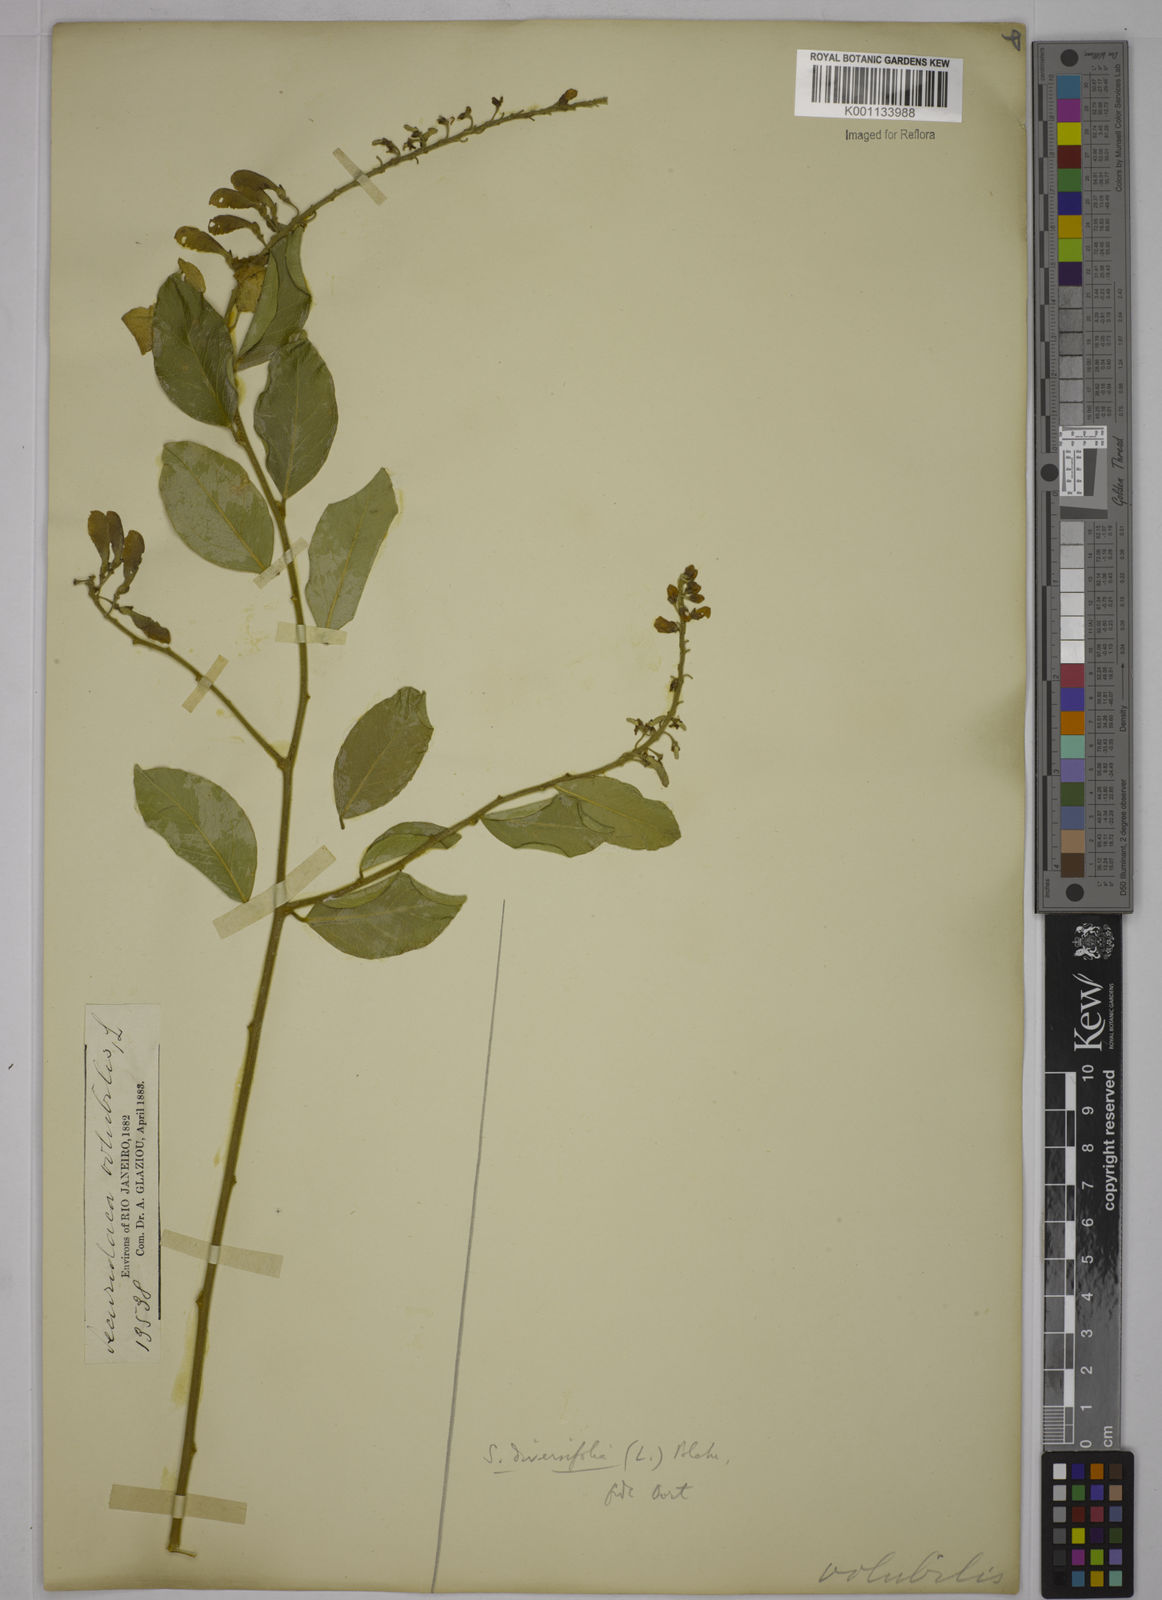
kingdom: Plantae
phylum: Tracheophyta
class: Magnoliopsida
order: Fabales
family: Polygalaceae
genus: Securidaca
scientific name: Securidaca diversifolia
